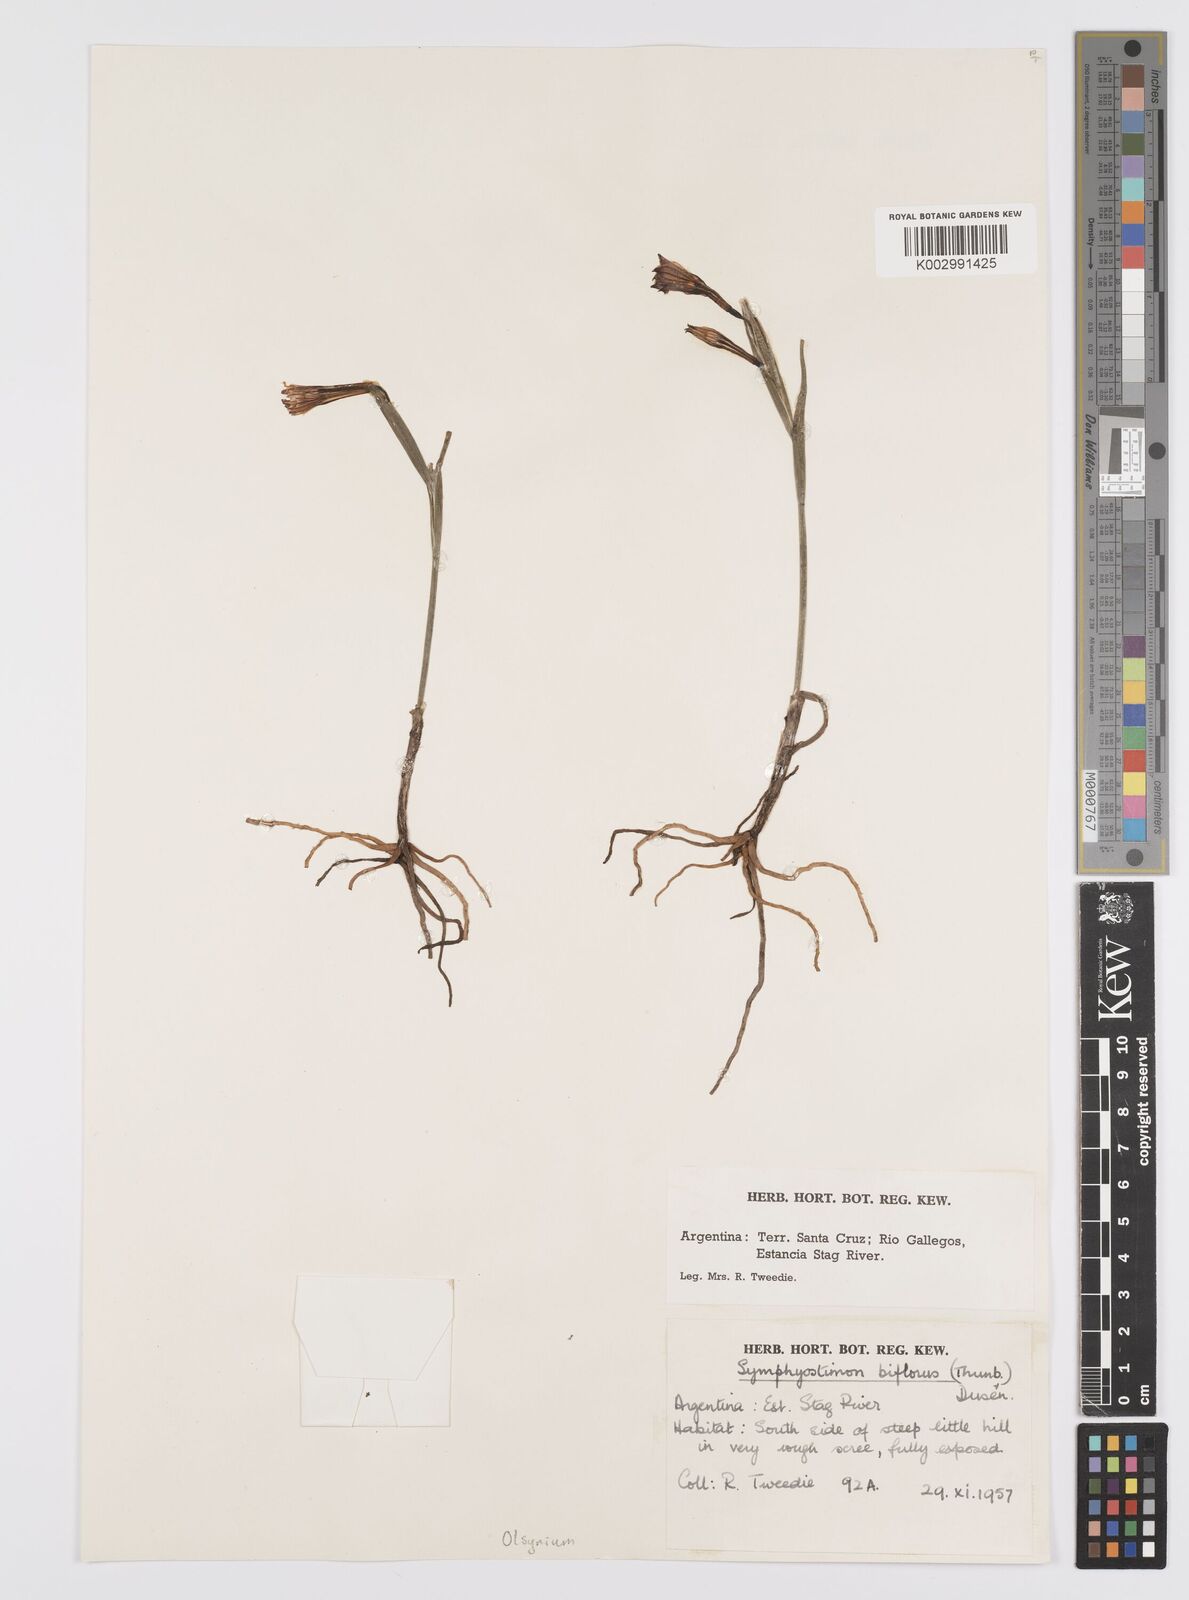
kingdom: Plantae
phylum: Tracheophyta
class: Liliopsida
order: Asparagales
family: Iridaceae
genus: Olsynium
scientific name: Olsynium biflorum
